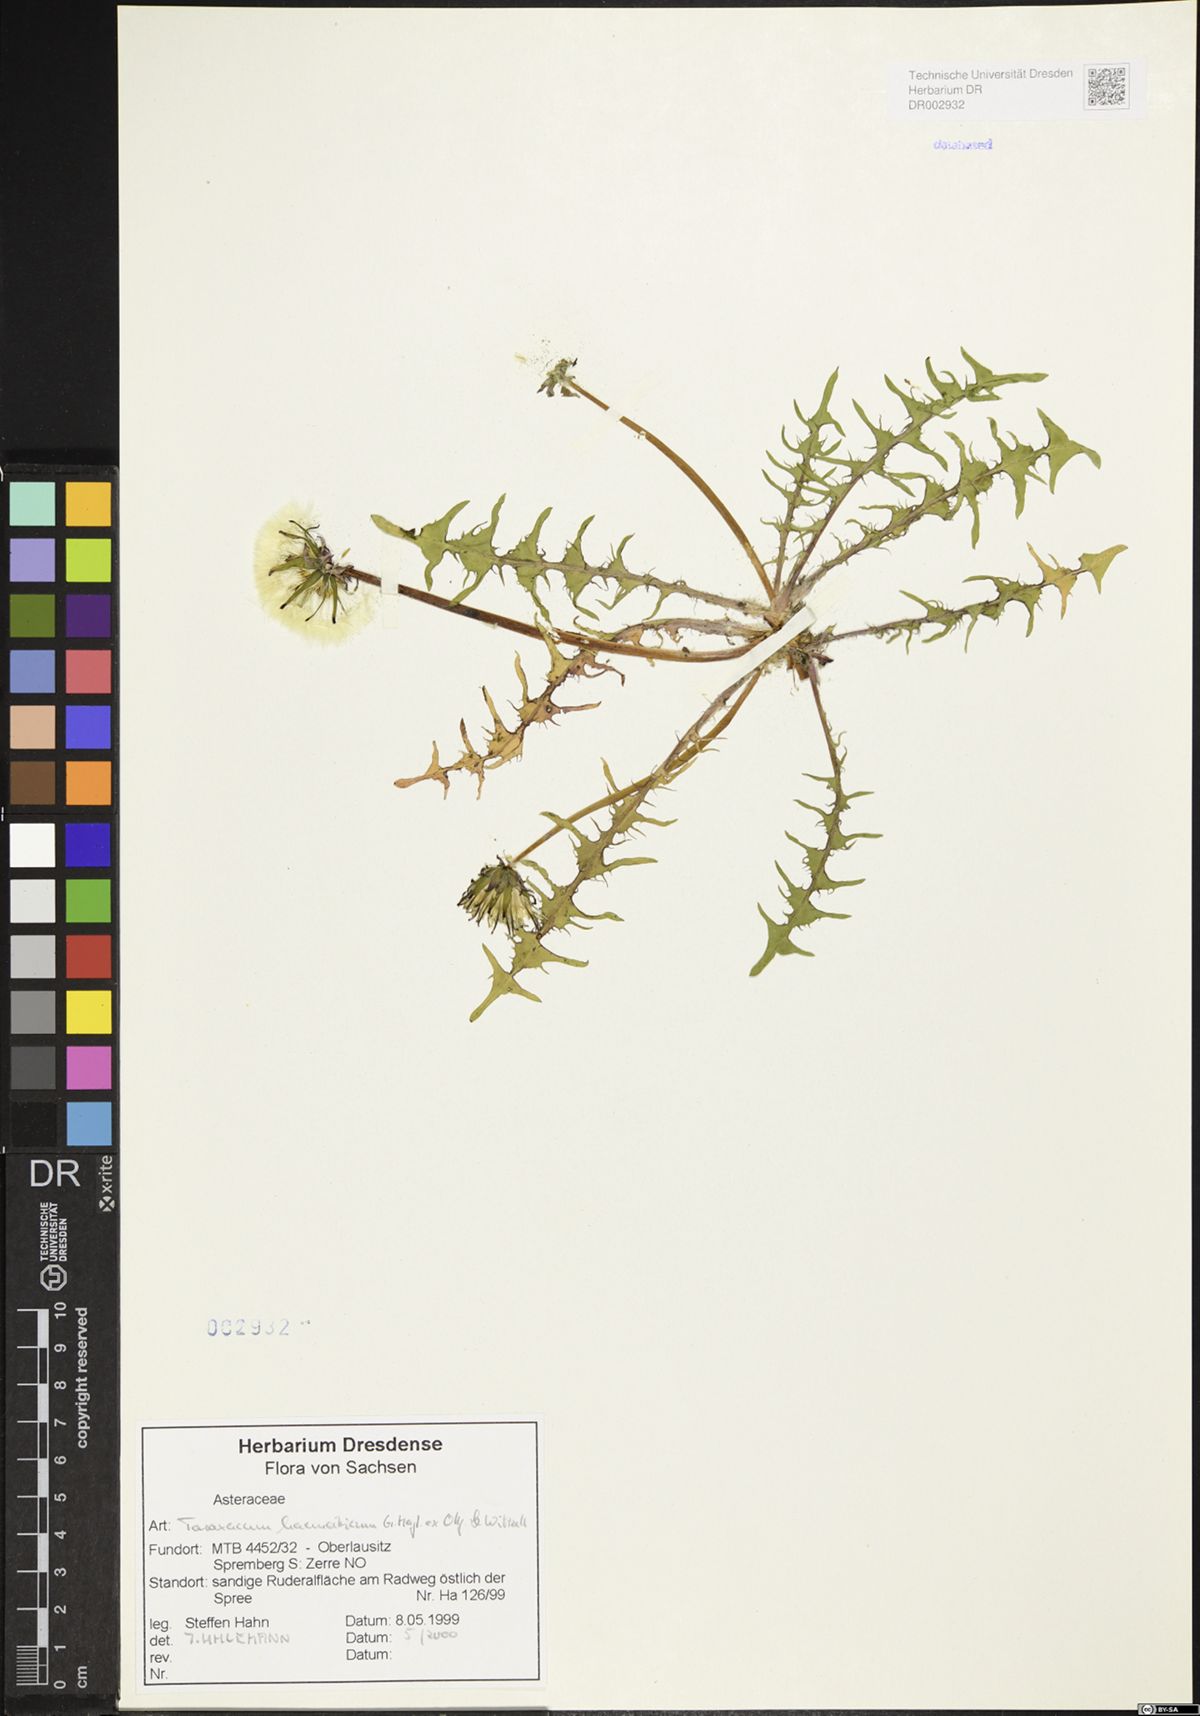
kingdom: Plantae
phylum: Tracheophyta
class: Magnoliopsida
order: Asterales
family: Asteraceae
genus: Taraxacum
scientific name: Taraxacum haematicum
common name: Blood-red dandelion
